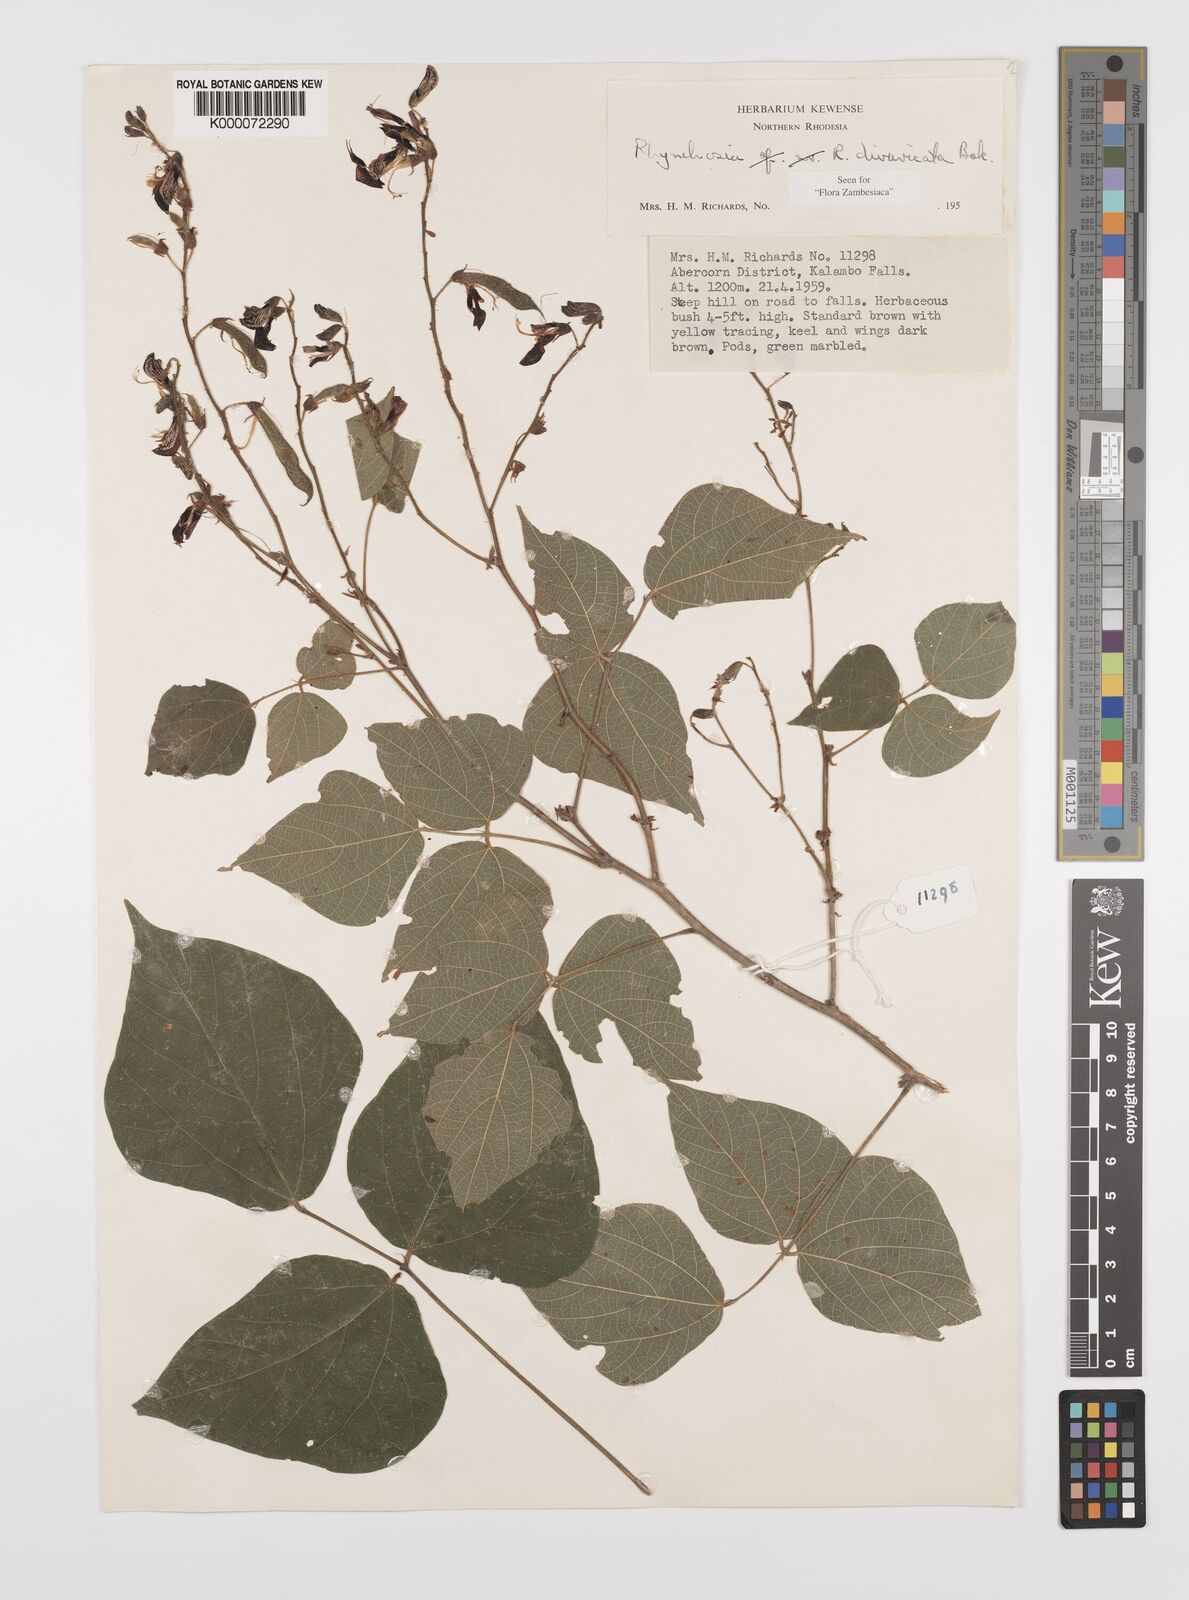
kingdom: Plantae
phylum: Tracheophyta
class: Magnoliopsida
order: Fabales
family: Fabaceae
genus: Rhynchosia
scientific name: Rhynchosia divaricata
